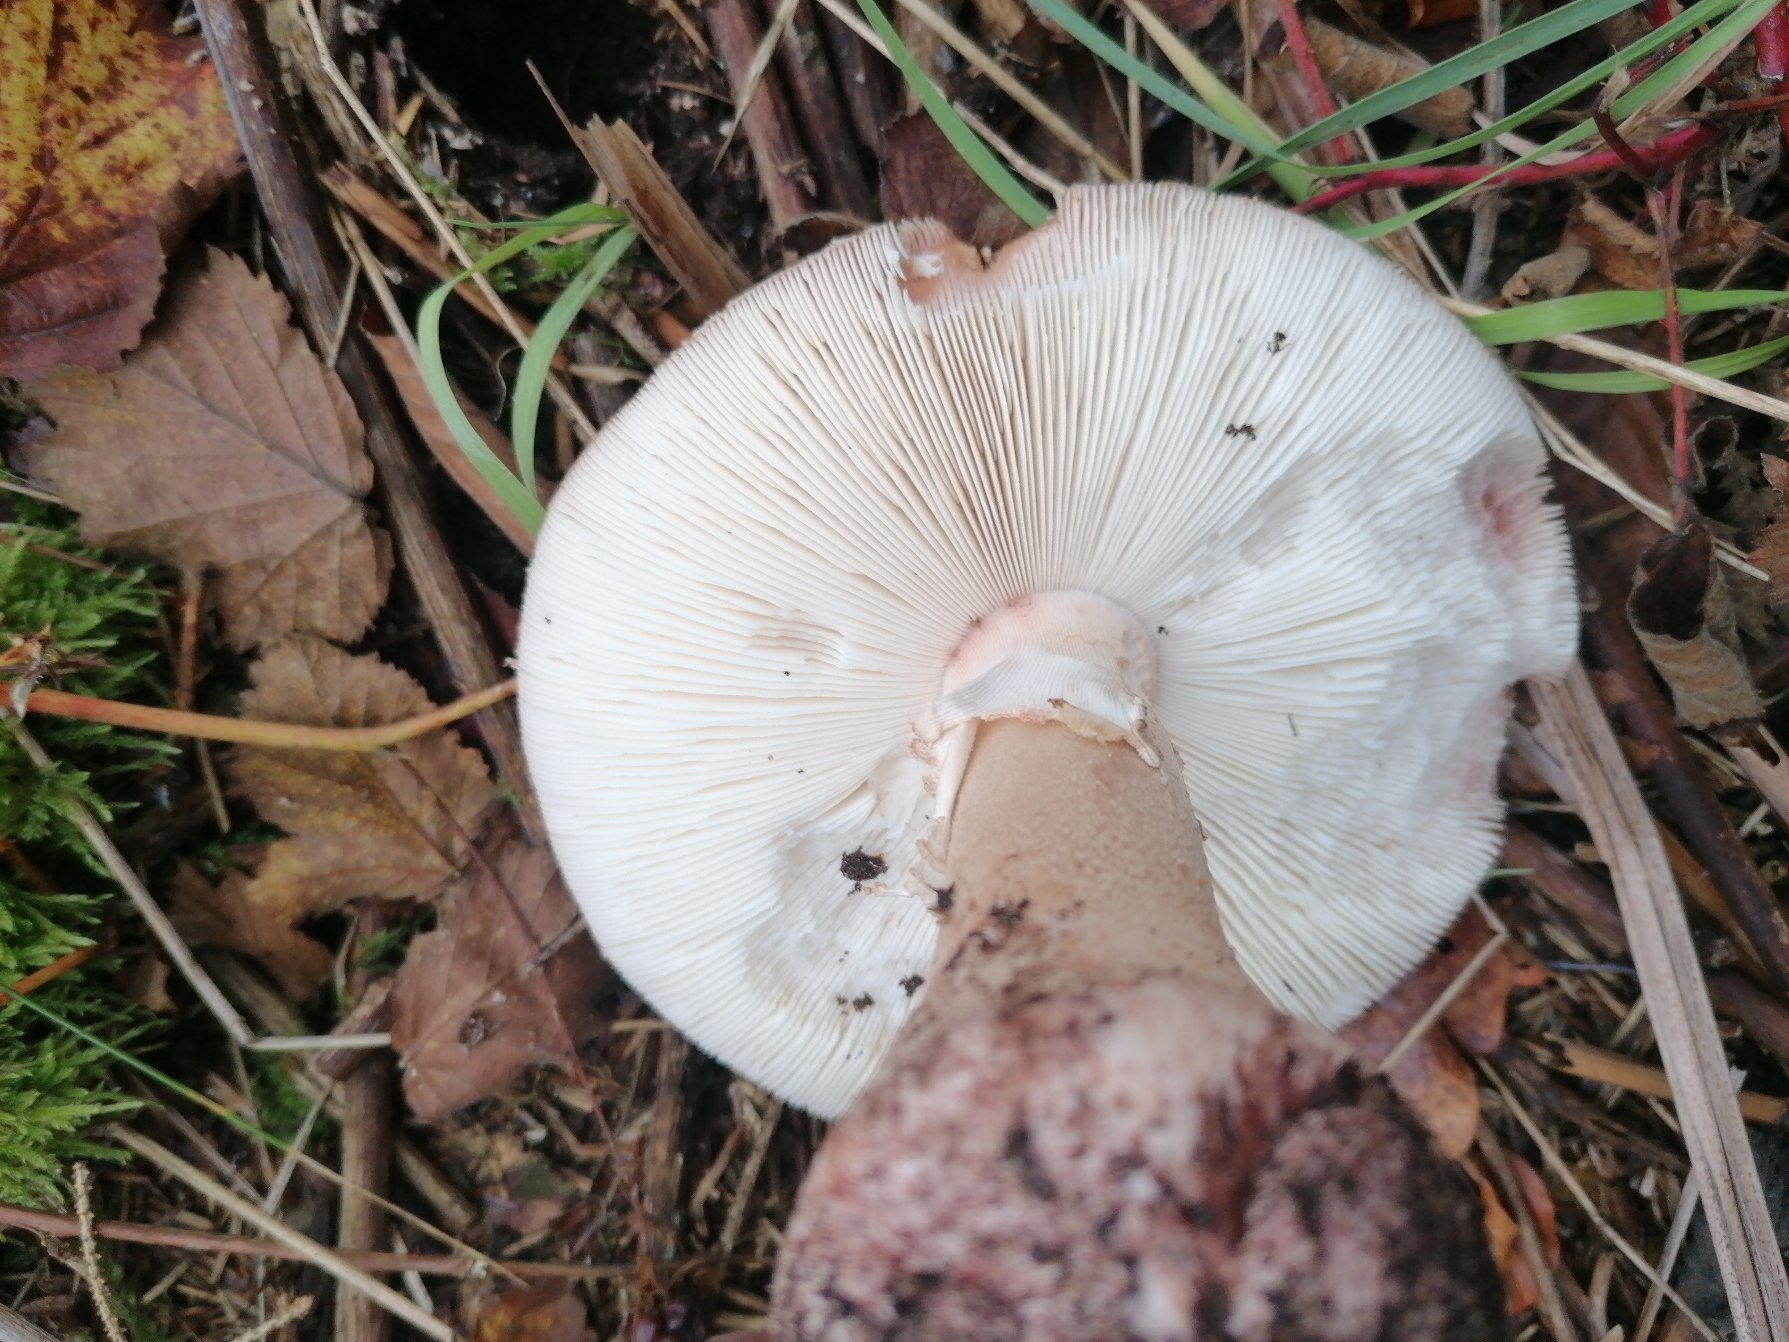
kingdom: Fungi
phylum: Basidiomycota
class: Agaricomycetes
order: Agaricales
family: Amanitaceae
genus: Amanita
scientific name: Amanita rubescens
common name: Rødmende fluesvamp
